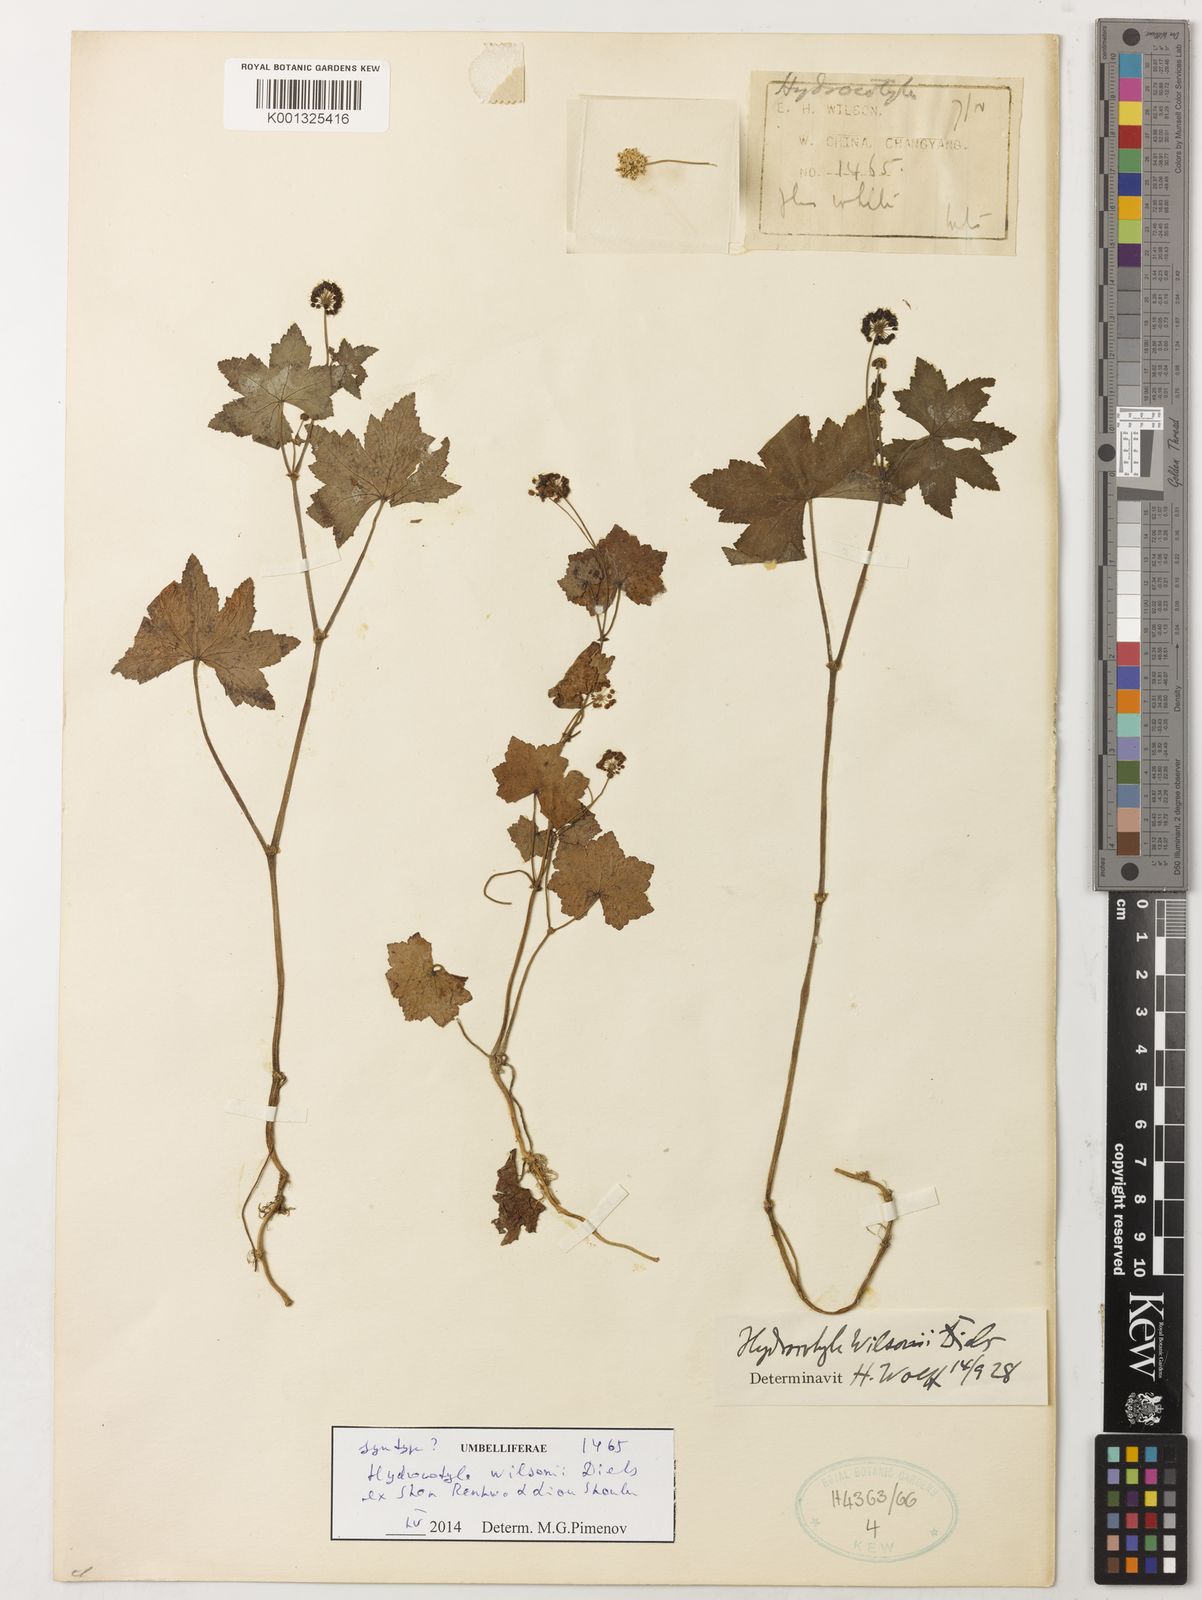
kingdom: Plantae
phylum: Tracheophyta
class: Magnoliopsida
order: Apiales
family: Araliaceae
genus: Hydrocotyle
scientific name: Hydrocotyle wilsonii
